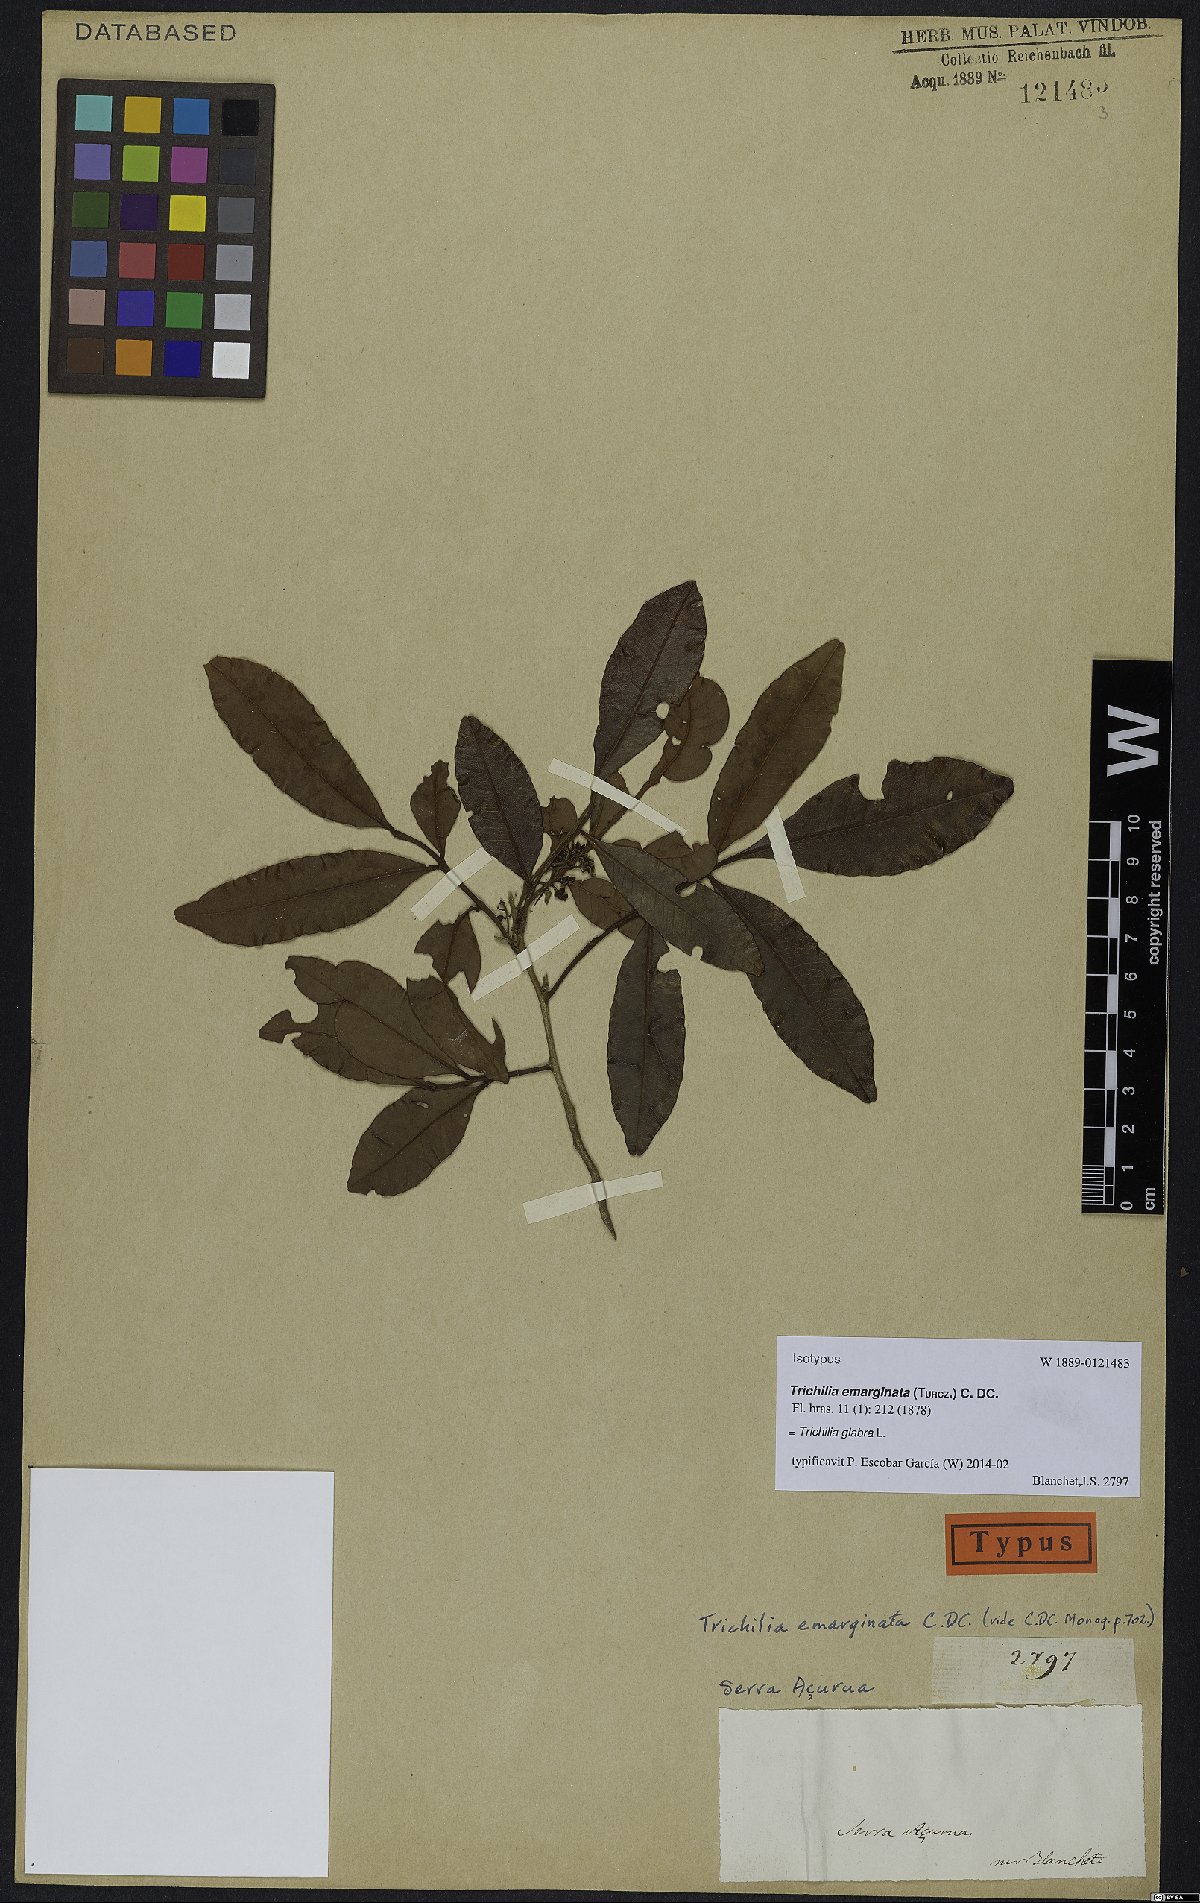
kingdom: Plantae
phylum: Tracheophyta
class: Magnoliopsida
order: Sapindales
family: Meliaceae
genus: Trichilia
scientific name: Trichilia glabra
